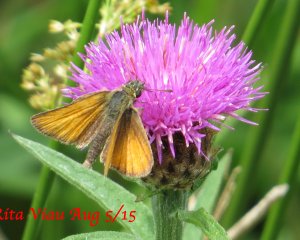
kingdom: Animalia
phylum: Arthropoda
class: Insecta
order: Lepidoptera
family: Hesperiidae
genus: Thymelicus
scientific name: Thymelicus lineola
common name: European Skipper
